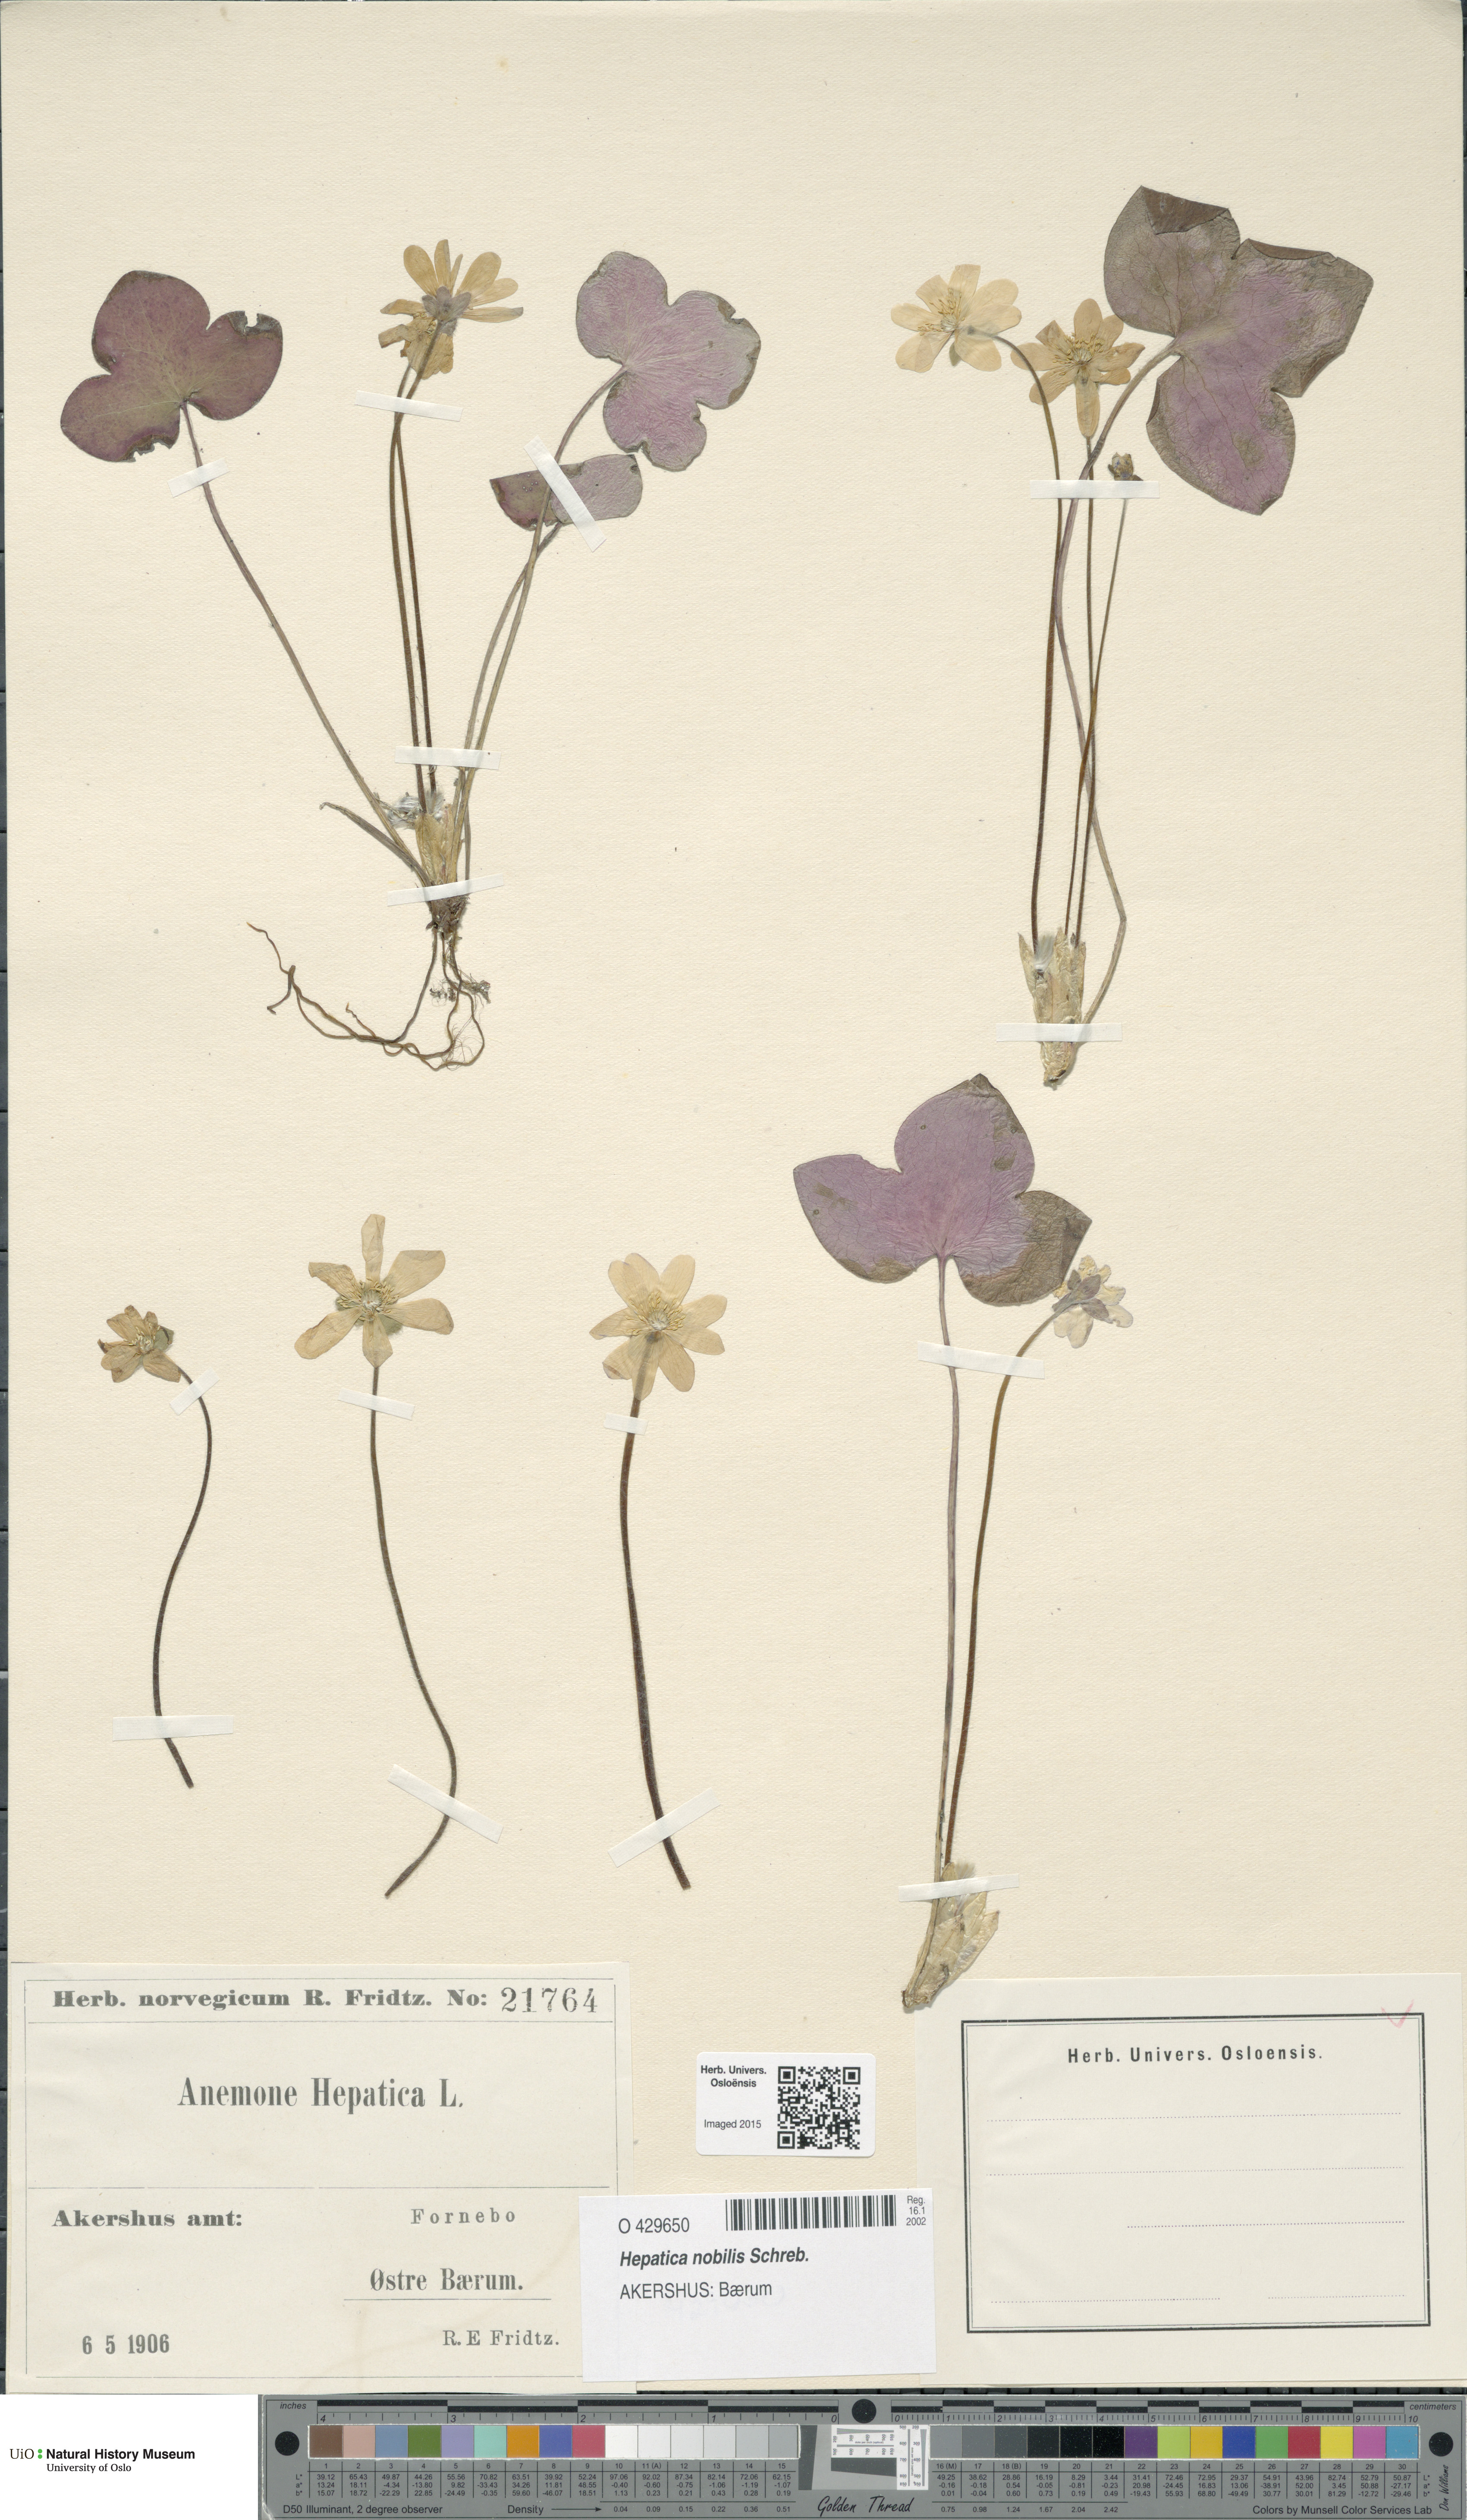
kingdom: Plantae
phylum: Tracheophyta
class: Magnoliopsida
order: Ranunculales
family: Ranunculaceae
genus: Hepatica
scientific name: Hepatica nobilis
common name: Liverleaf
